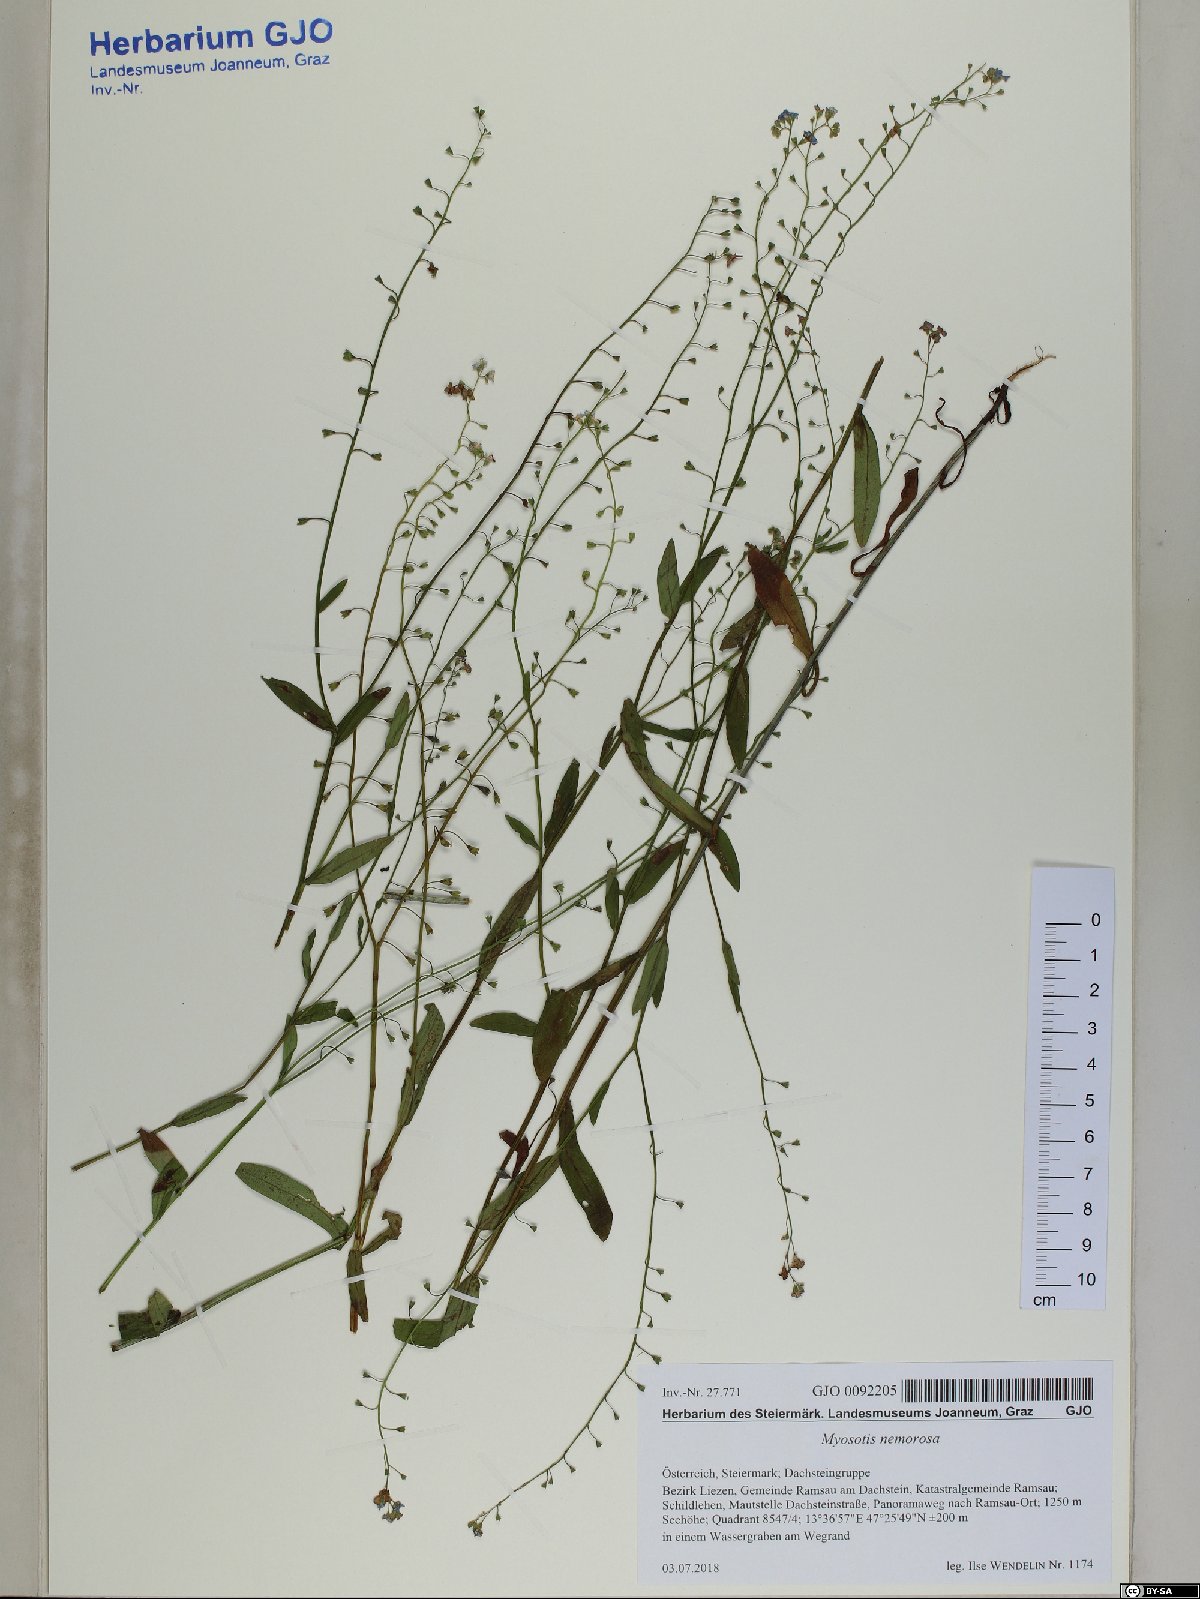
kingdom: Plantae
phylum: Tracheophyta
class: Magnoliopsida
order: Boraginales
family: Boraginaceae
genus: Myosotis
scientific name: Myosotis nemorosa
